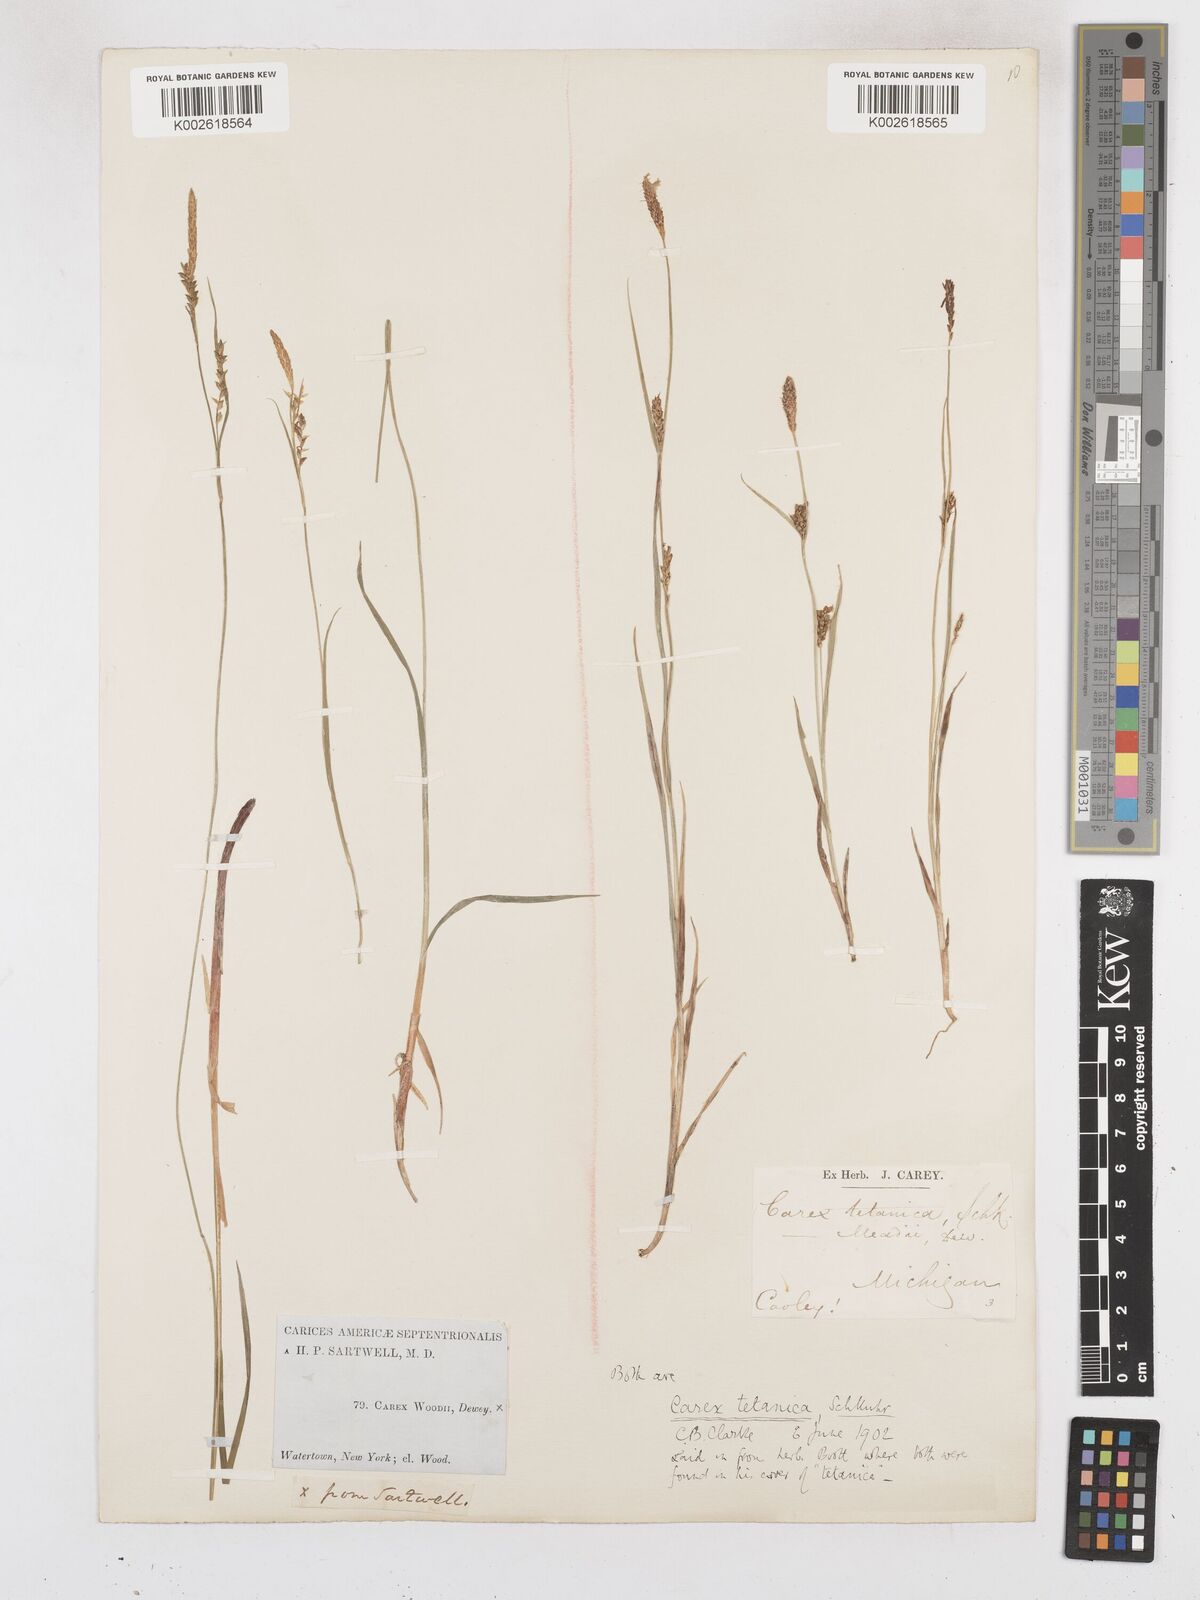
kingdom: Plantae
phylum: Tracheophyta
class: Liliopsida
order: Poales
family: Cyperaceae
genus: Carex
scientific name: Carex woodii
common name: Wood's sedge
